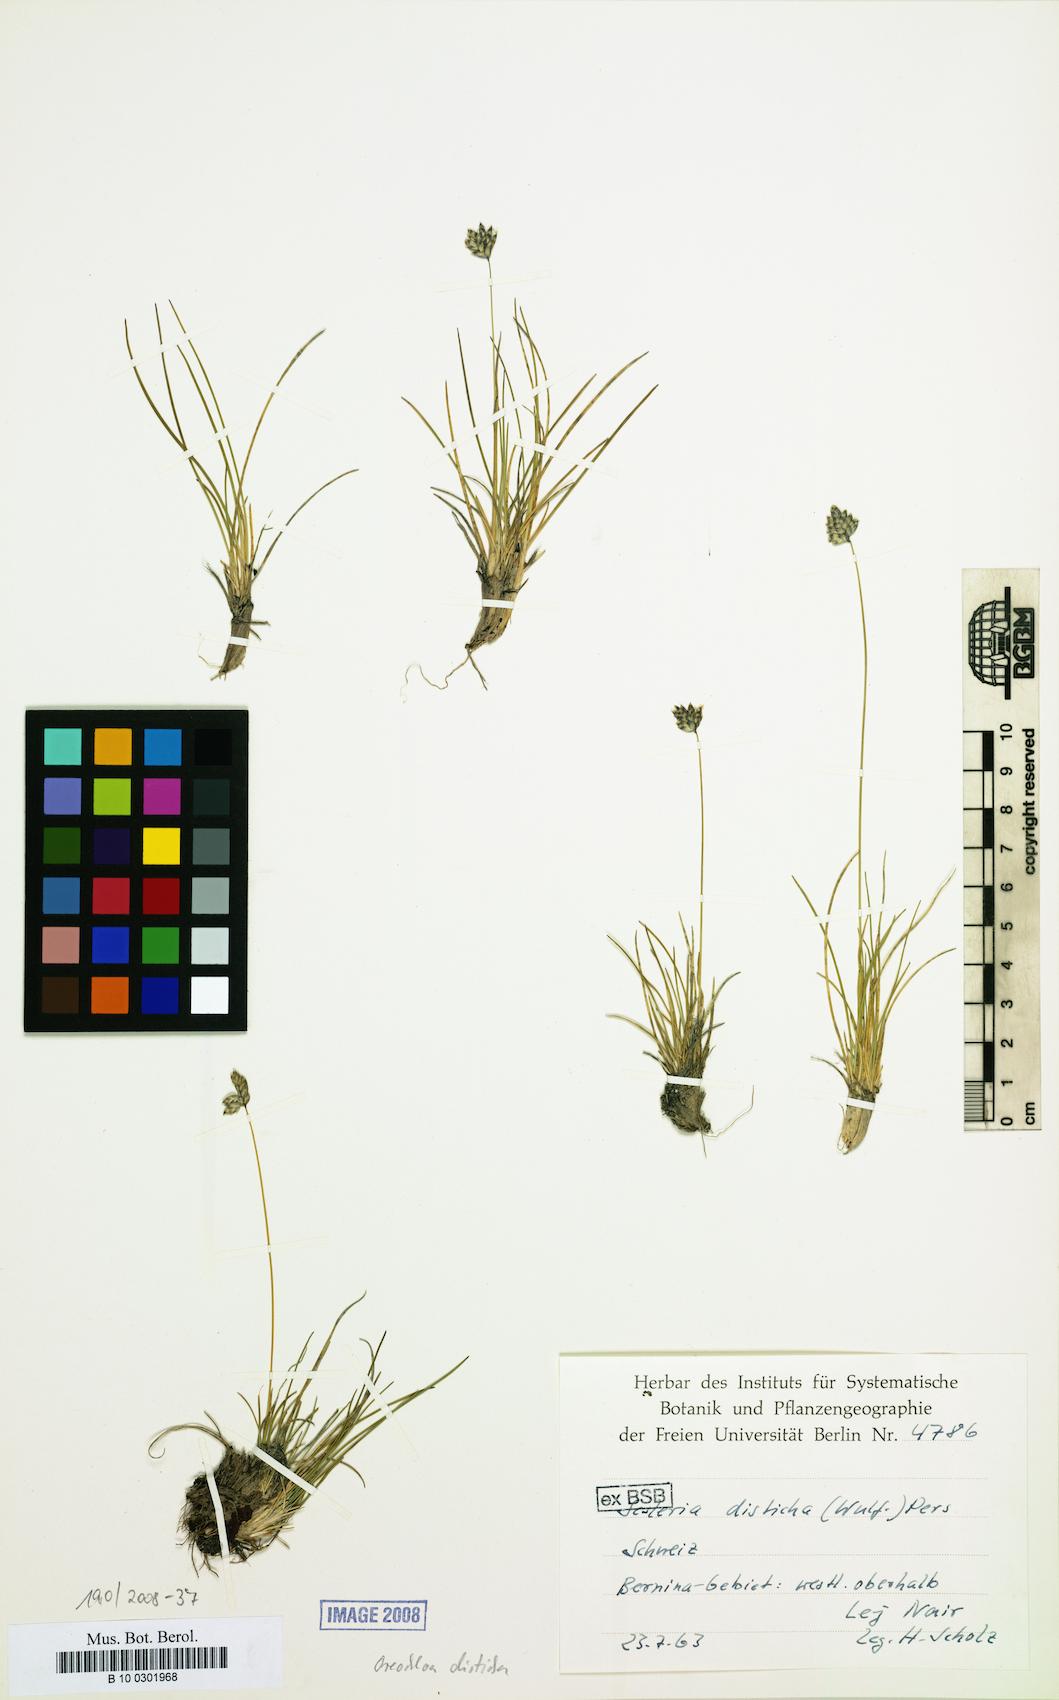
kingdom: Plantae
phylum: Tracheophyta
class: Liliopsida
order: Poales
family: Poaceae
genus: Oreochloa
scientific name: Oreochloa disticha
